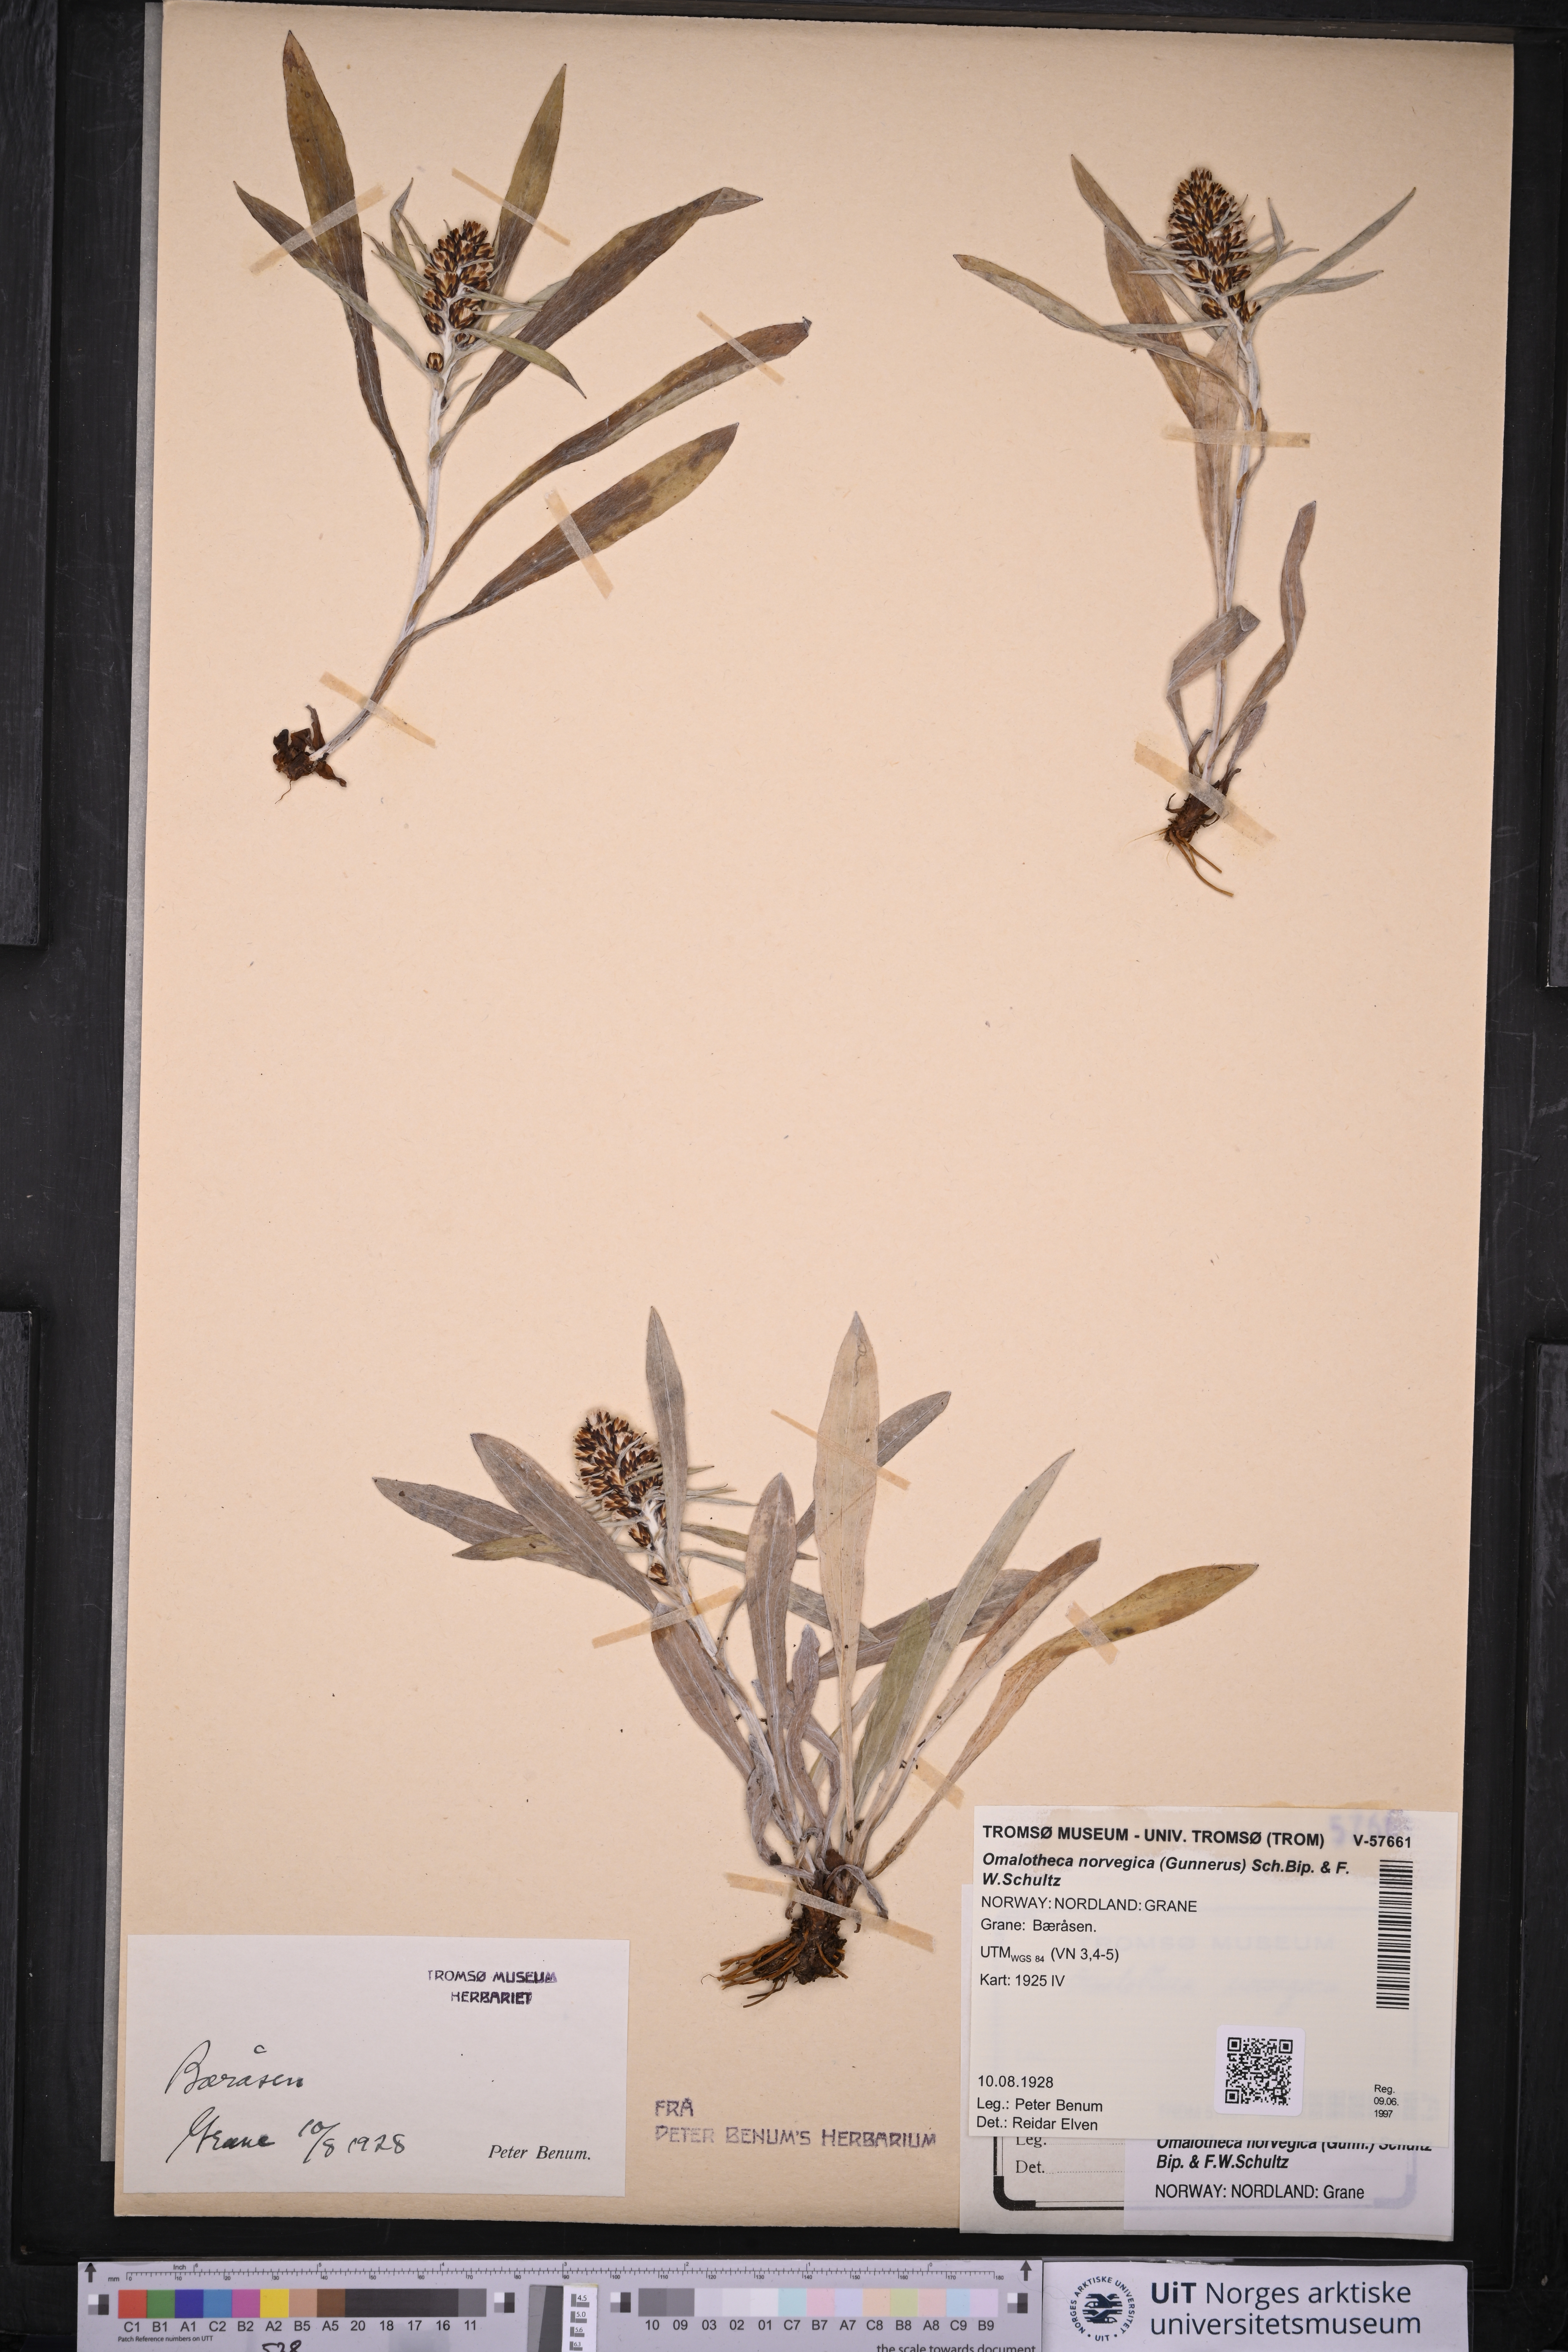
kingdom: Plantae
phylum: Tracheophyta
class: Magnoliopsida
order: Asterales
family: Asteraceae
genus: Omalotheca
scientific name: Omalotheca norvegica
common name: Norwegian arctic-cudweed
